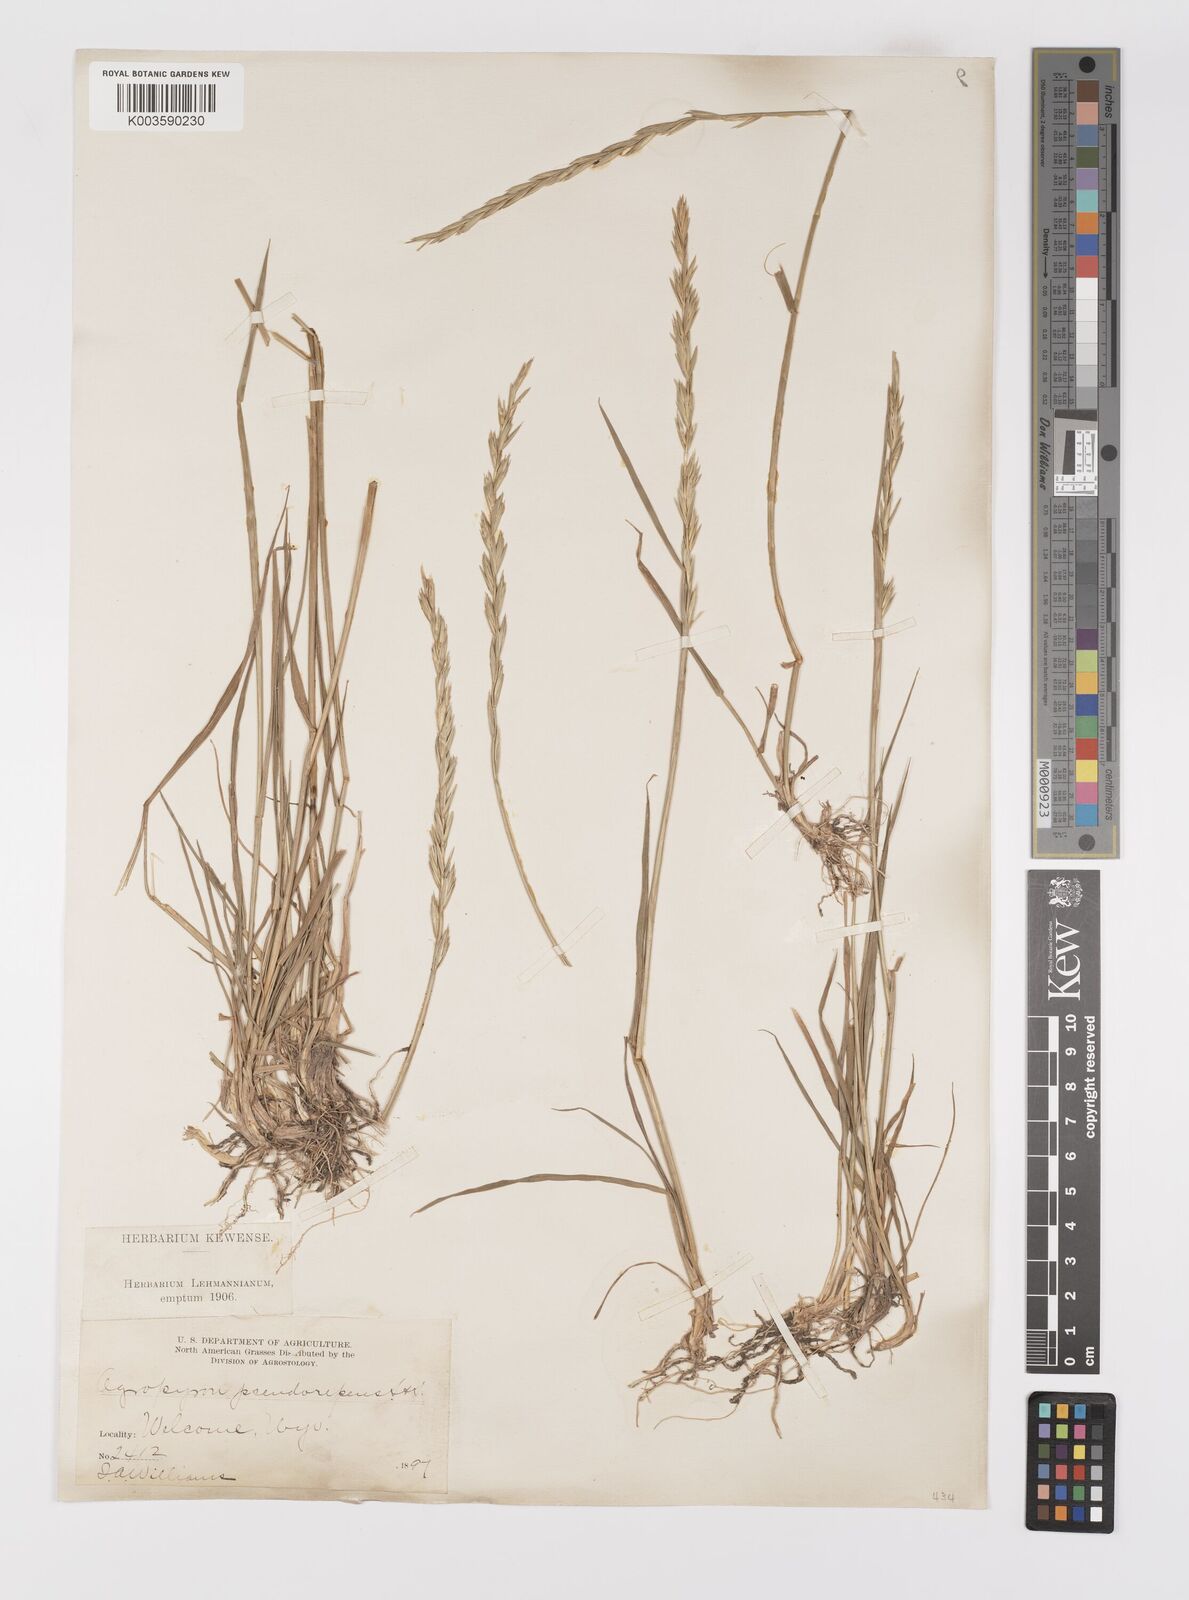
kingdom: Plantae
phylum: Tracheophyta
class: Liliopsida
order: Poales
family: Poaceae
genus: Elymus
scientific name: Elymus violaceus
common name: Arctic wheatgrass
